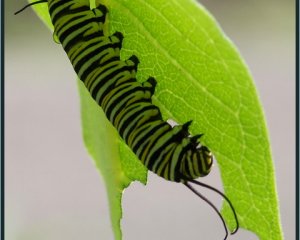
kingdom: Animalia
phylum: Arthropoda
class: Insecta
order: Lepidoptera
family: Nymphalidae
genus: Danaus
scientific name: Danaus plexippus
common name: Monarch
